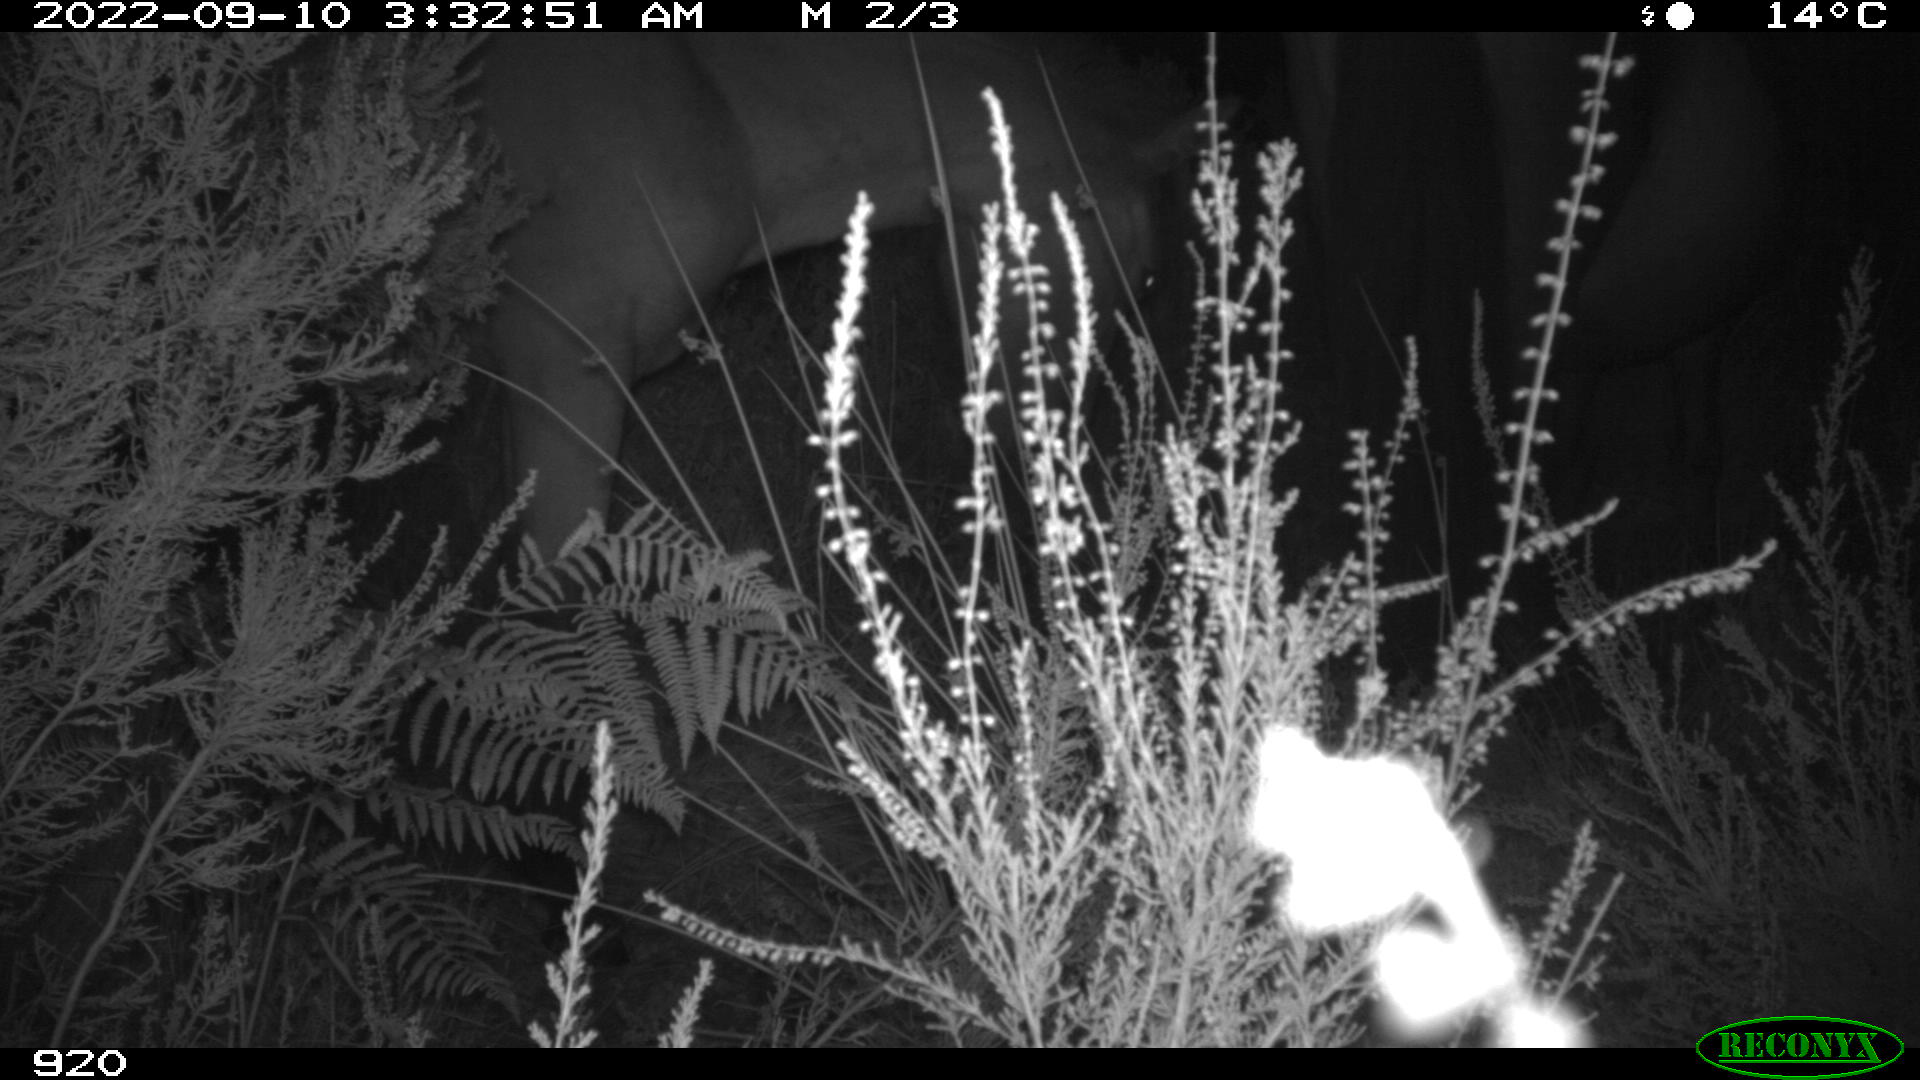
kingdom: Animalia
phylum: Chordata
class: Mammalia
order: Perissodactyla
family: Equidae
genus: Equus
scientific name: Equus caballus
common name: Horse
